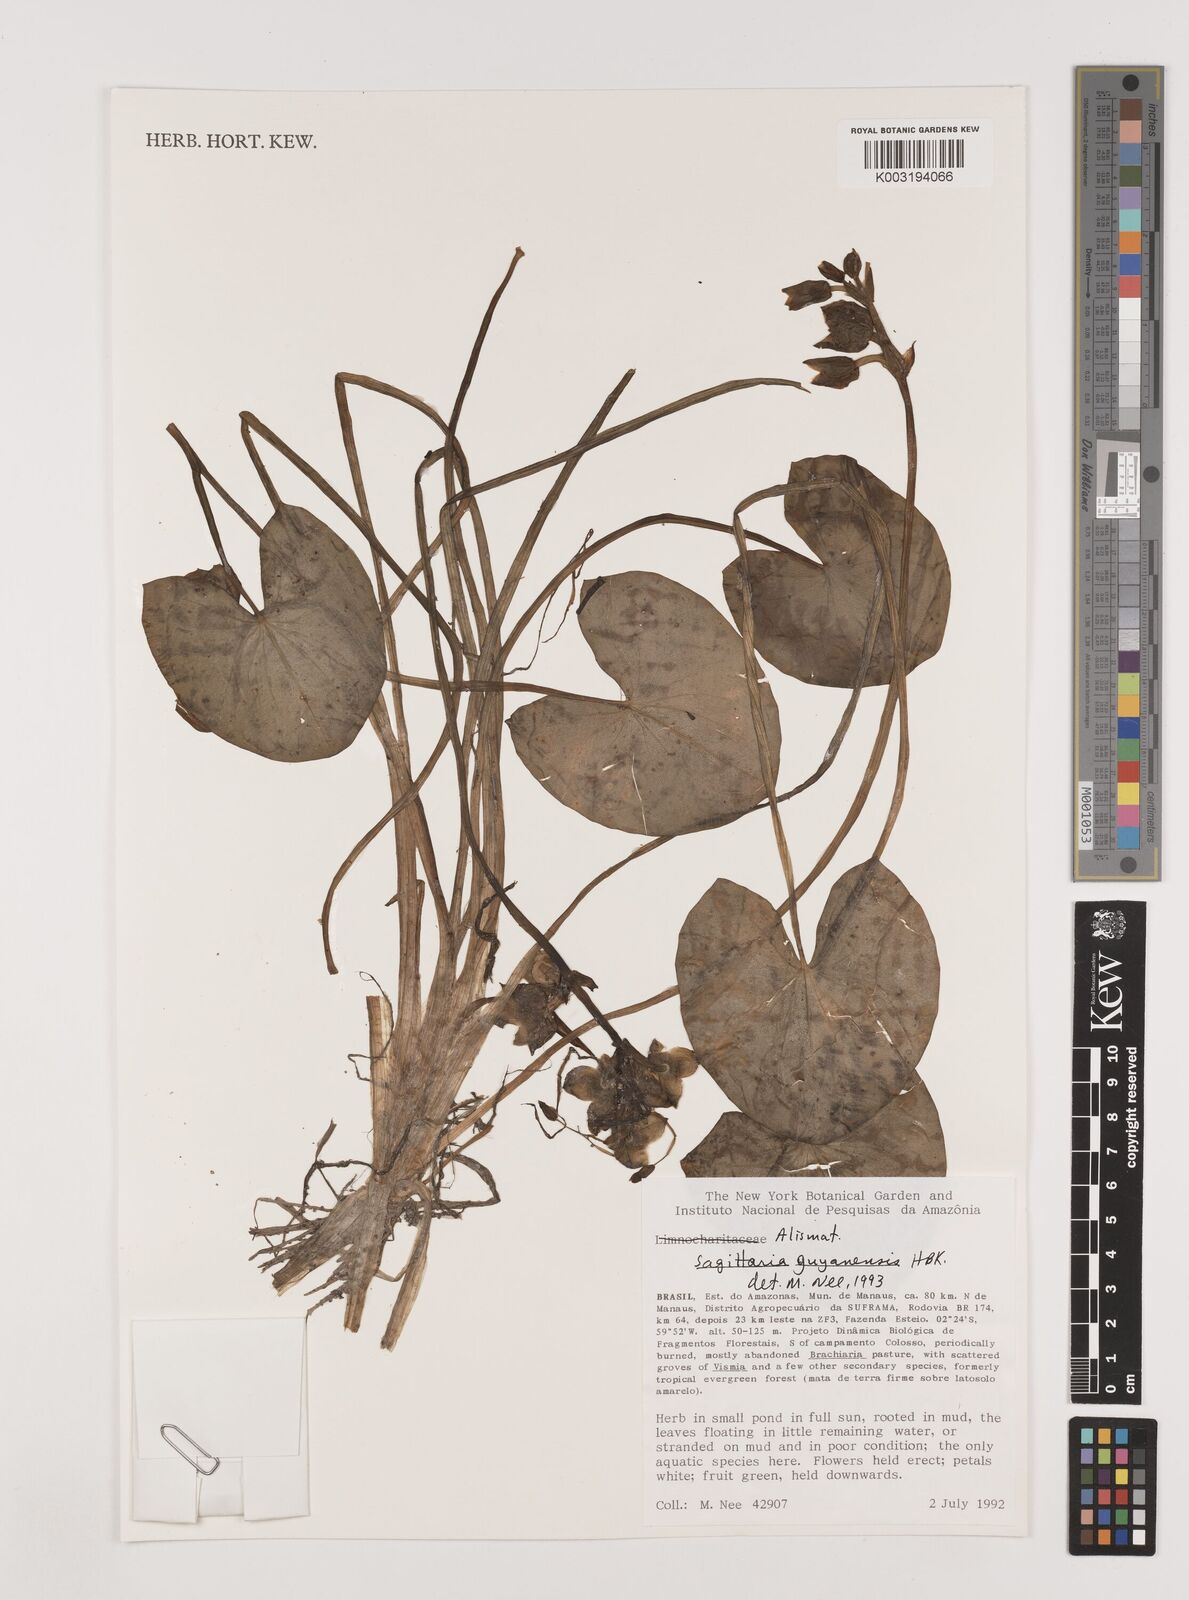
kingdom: Plantae
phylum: Tracheophyta
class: Liliopsida
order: Alismatales
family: Alismataceae
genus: Sagittaria
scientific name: Sagittaria guayanensis
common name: Guyanese arrowhead
